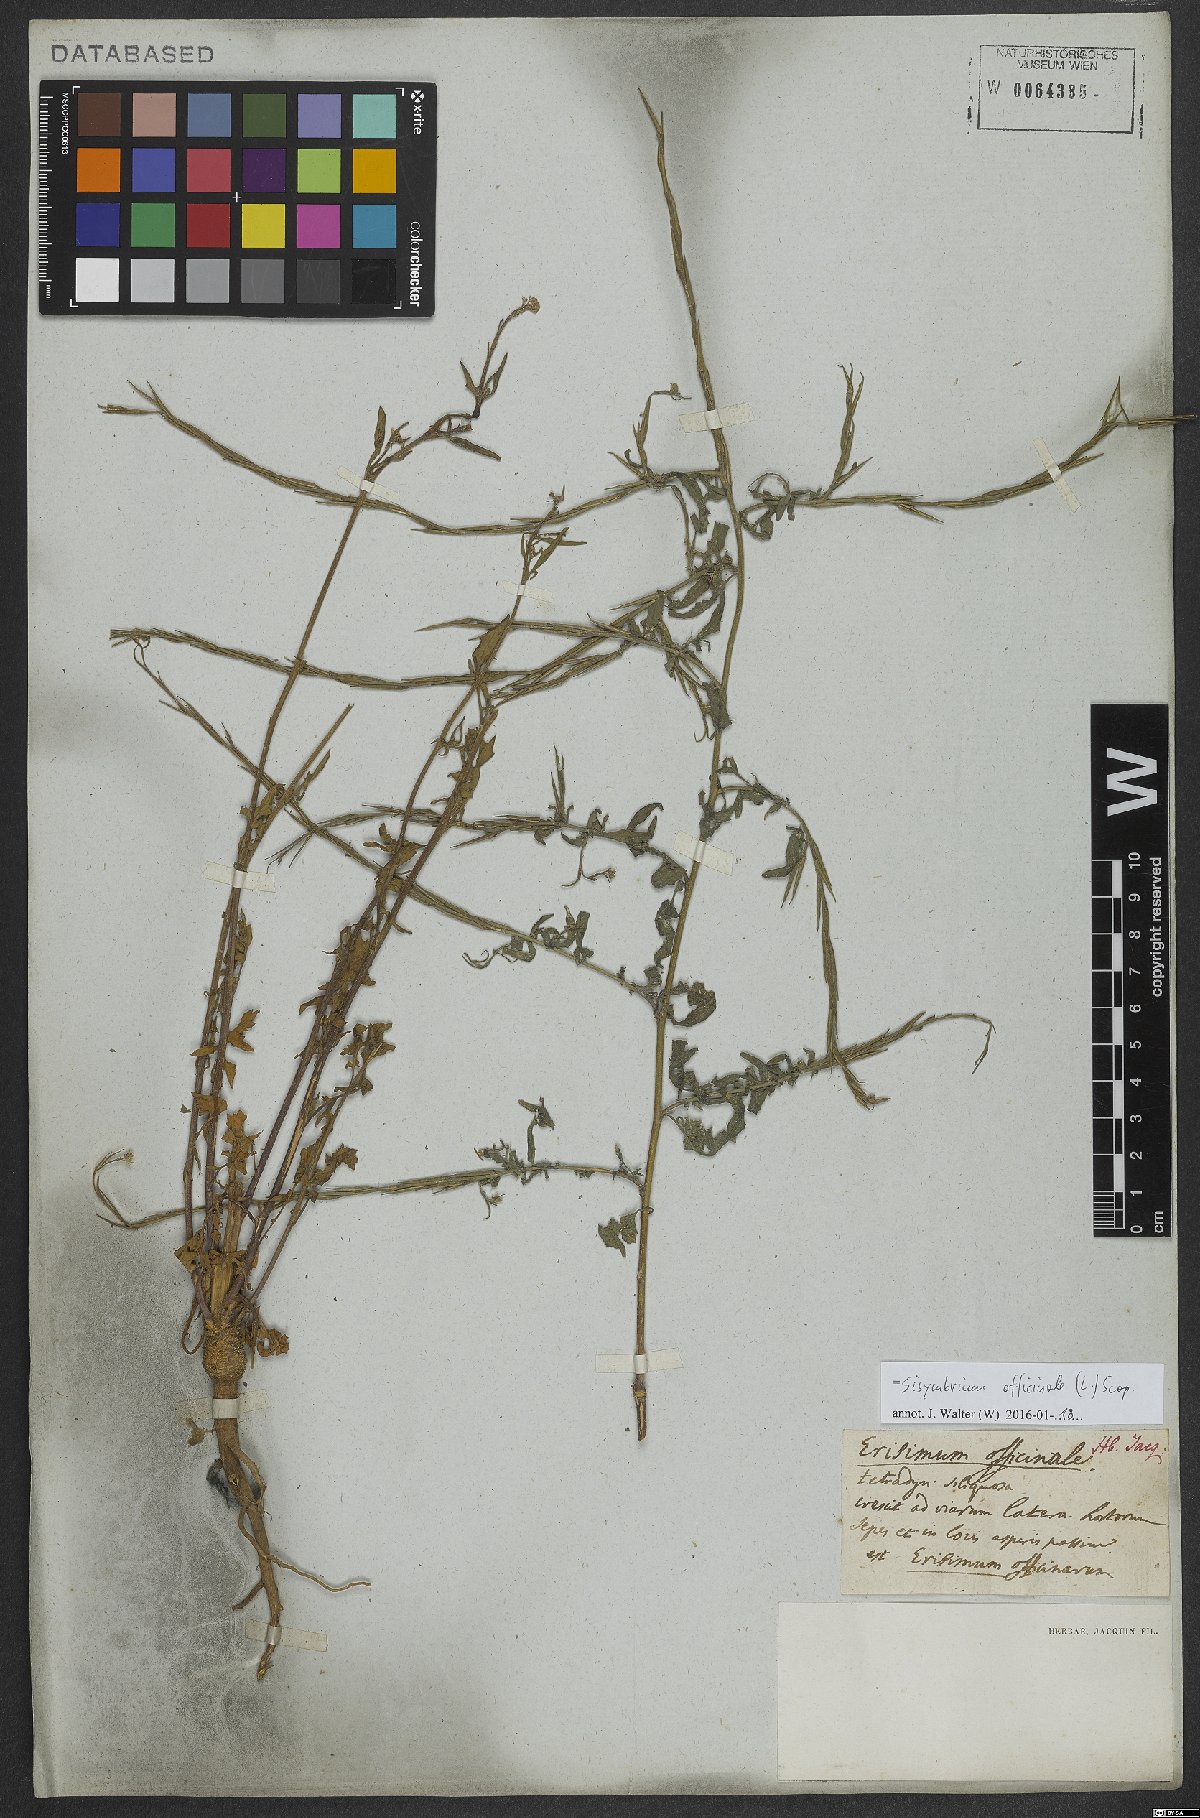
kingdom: Plantae
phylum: Tracheophyta
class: Magnoliopsida
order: Brassicales
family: Brassicaceae
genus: Sisymbrium
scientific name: Sisymbrium officinale
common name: Hedge mustard
